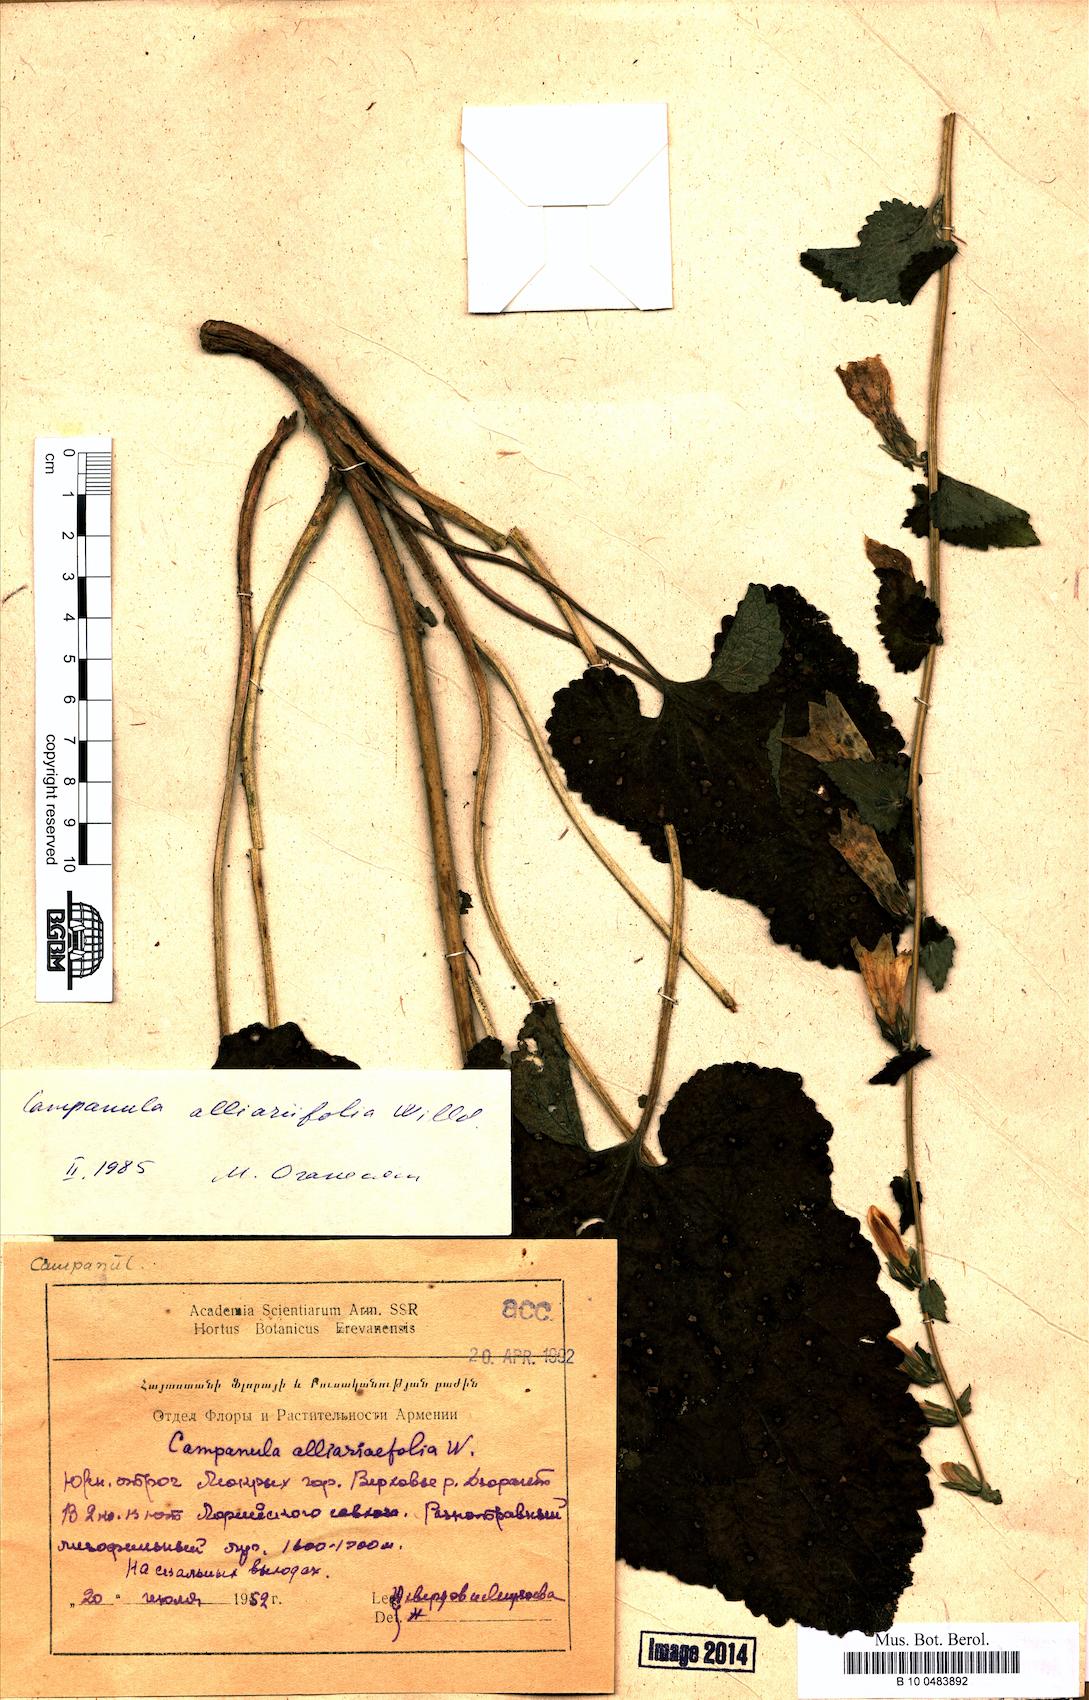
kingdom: Plantae
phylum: Tracheophyta
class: Magnoliopsida
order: Asterales
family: Campanulaceae
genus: Campanula
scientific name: Campanula alliariifolia
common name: Cornish bellflower
